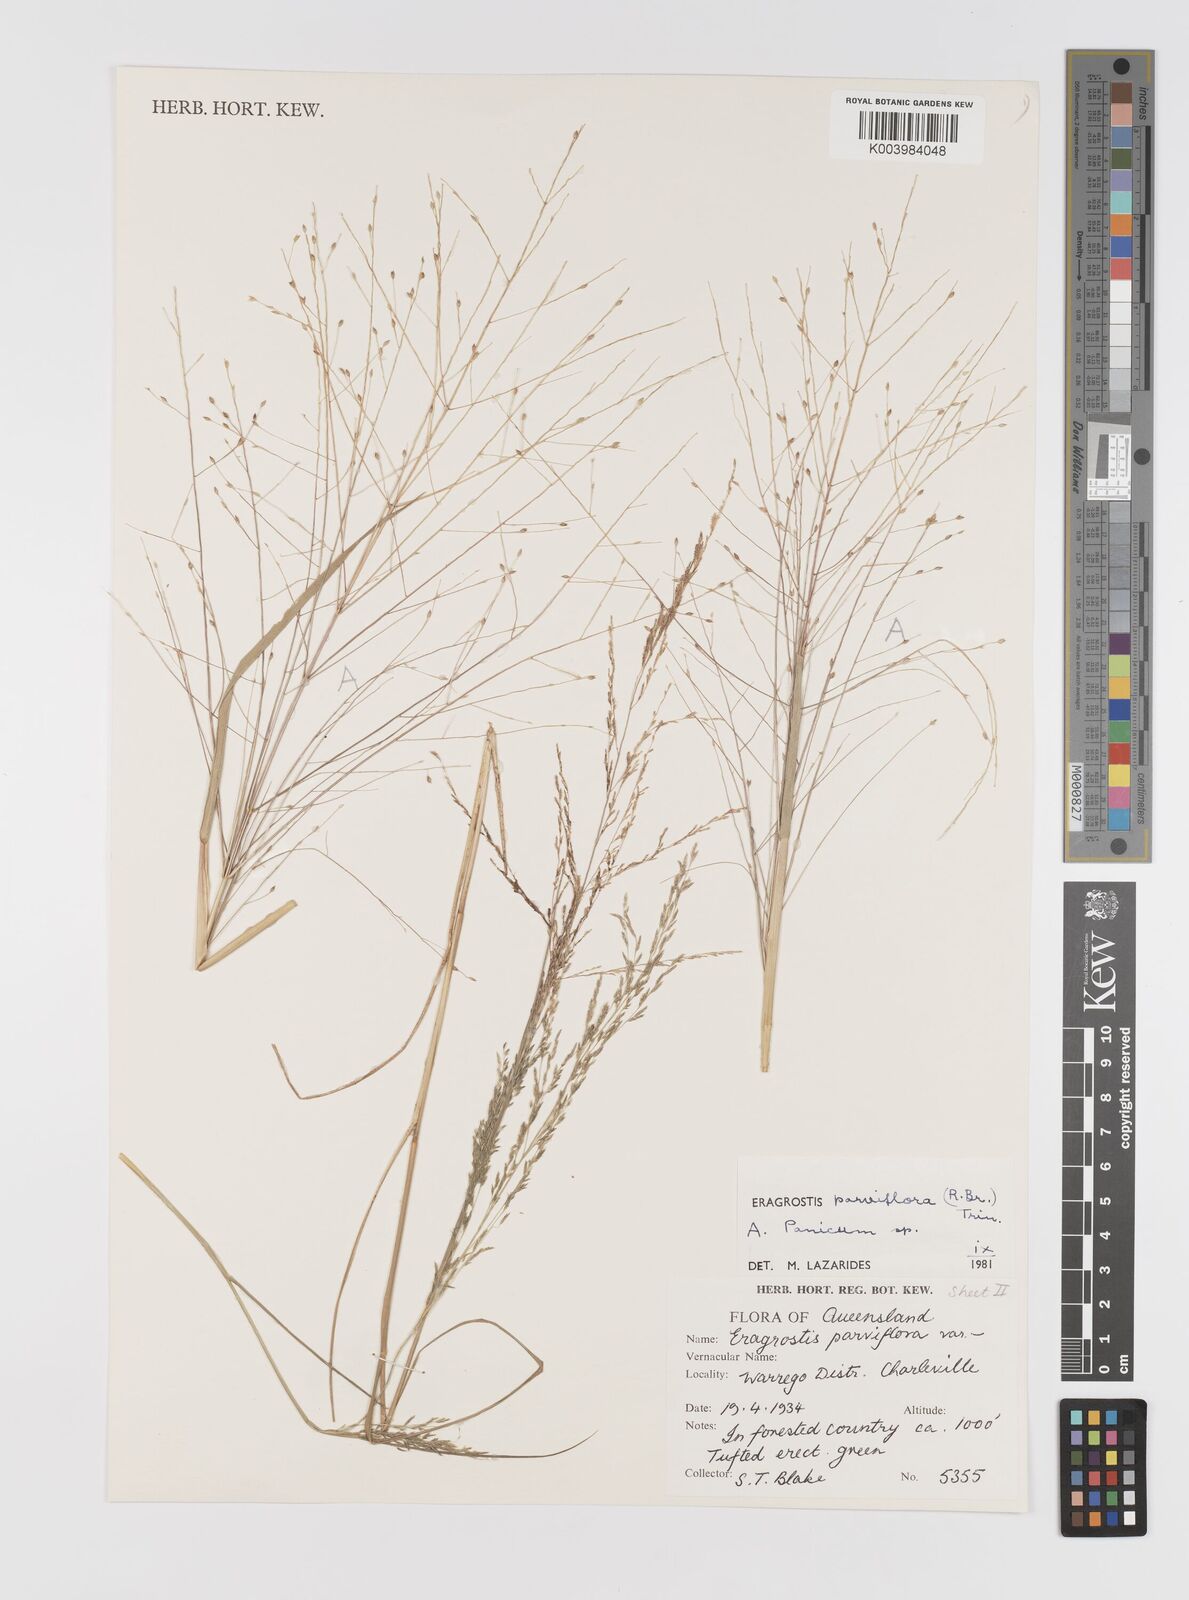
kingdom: Plantae
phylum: Tracheophyta
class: Liliopsida
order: Poales
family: Poaceae
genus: Eragrostis
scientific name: Eragrostis parviflora
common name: Weeping love-grass
